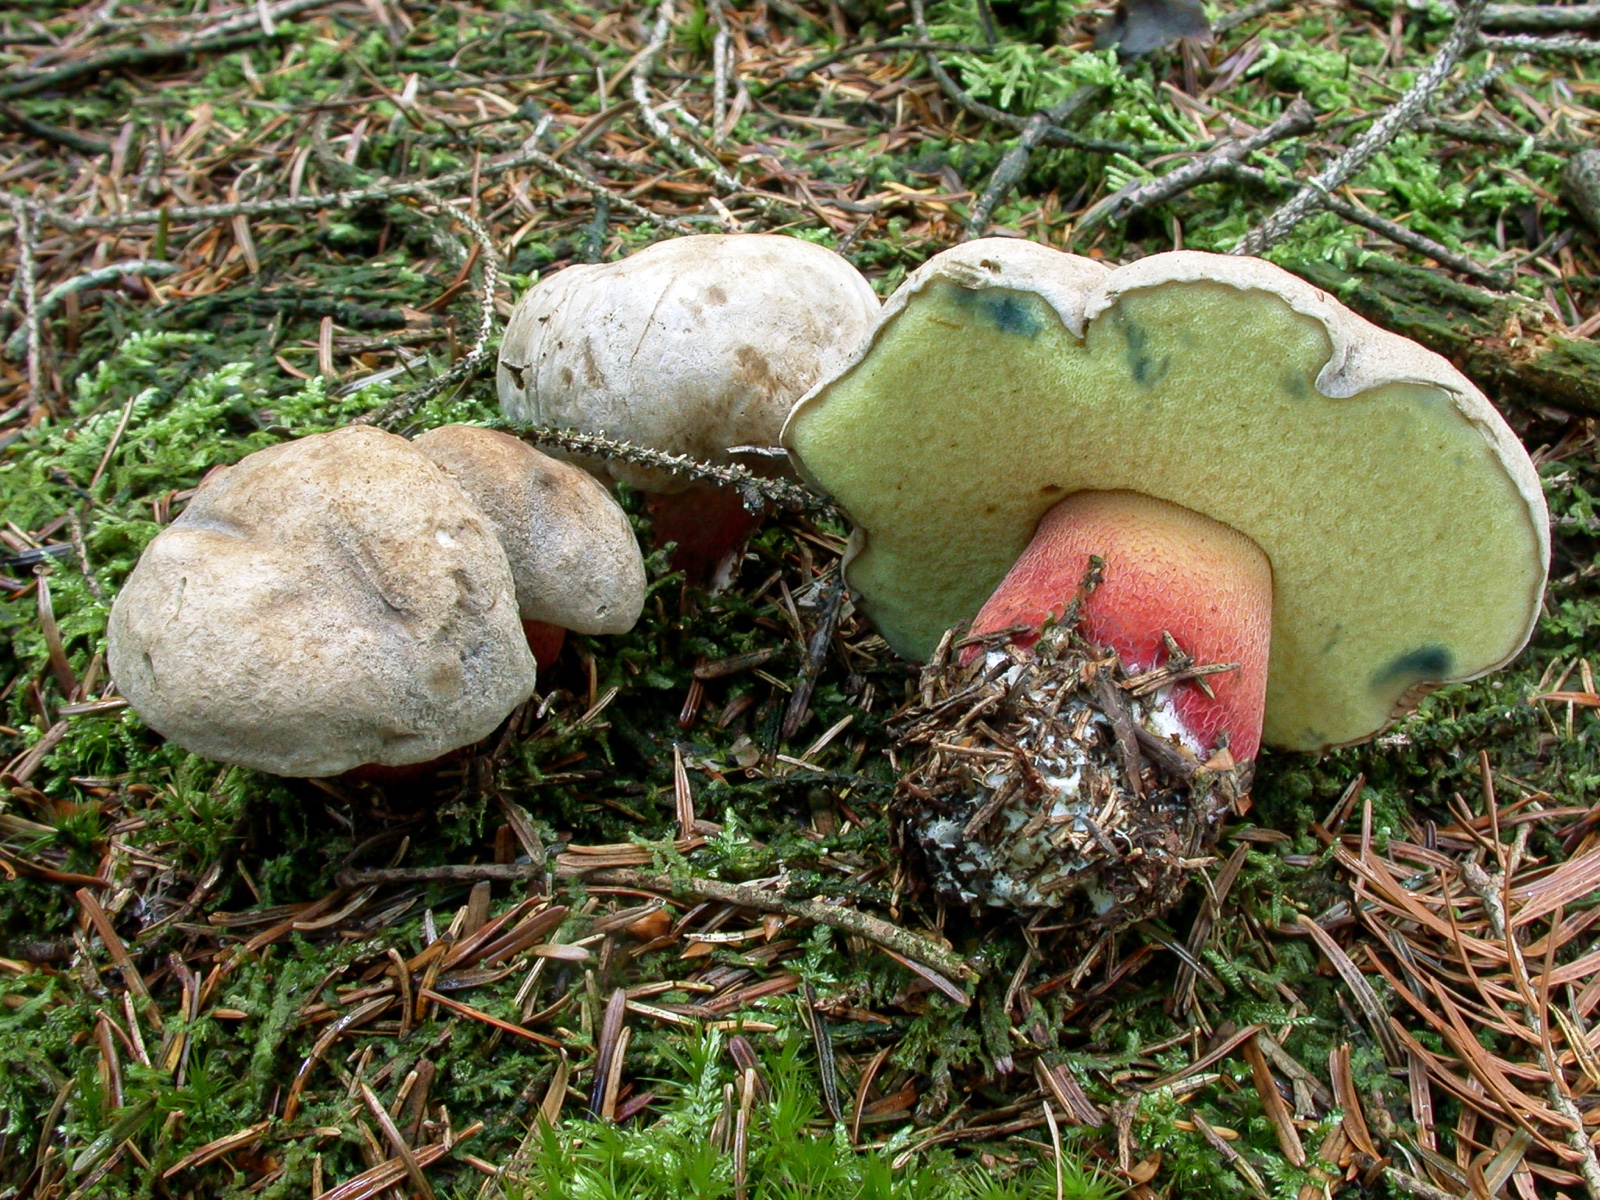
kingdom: Fungi
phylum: Basidiomycota
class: Agaricomycetes
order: Boletales
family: Boletaceae
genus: Caloboletus
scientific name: Caloboletus calopus
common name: skønfodet rørhat
